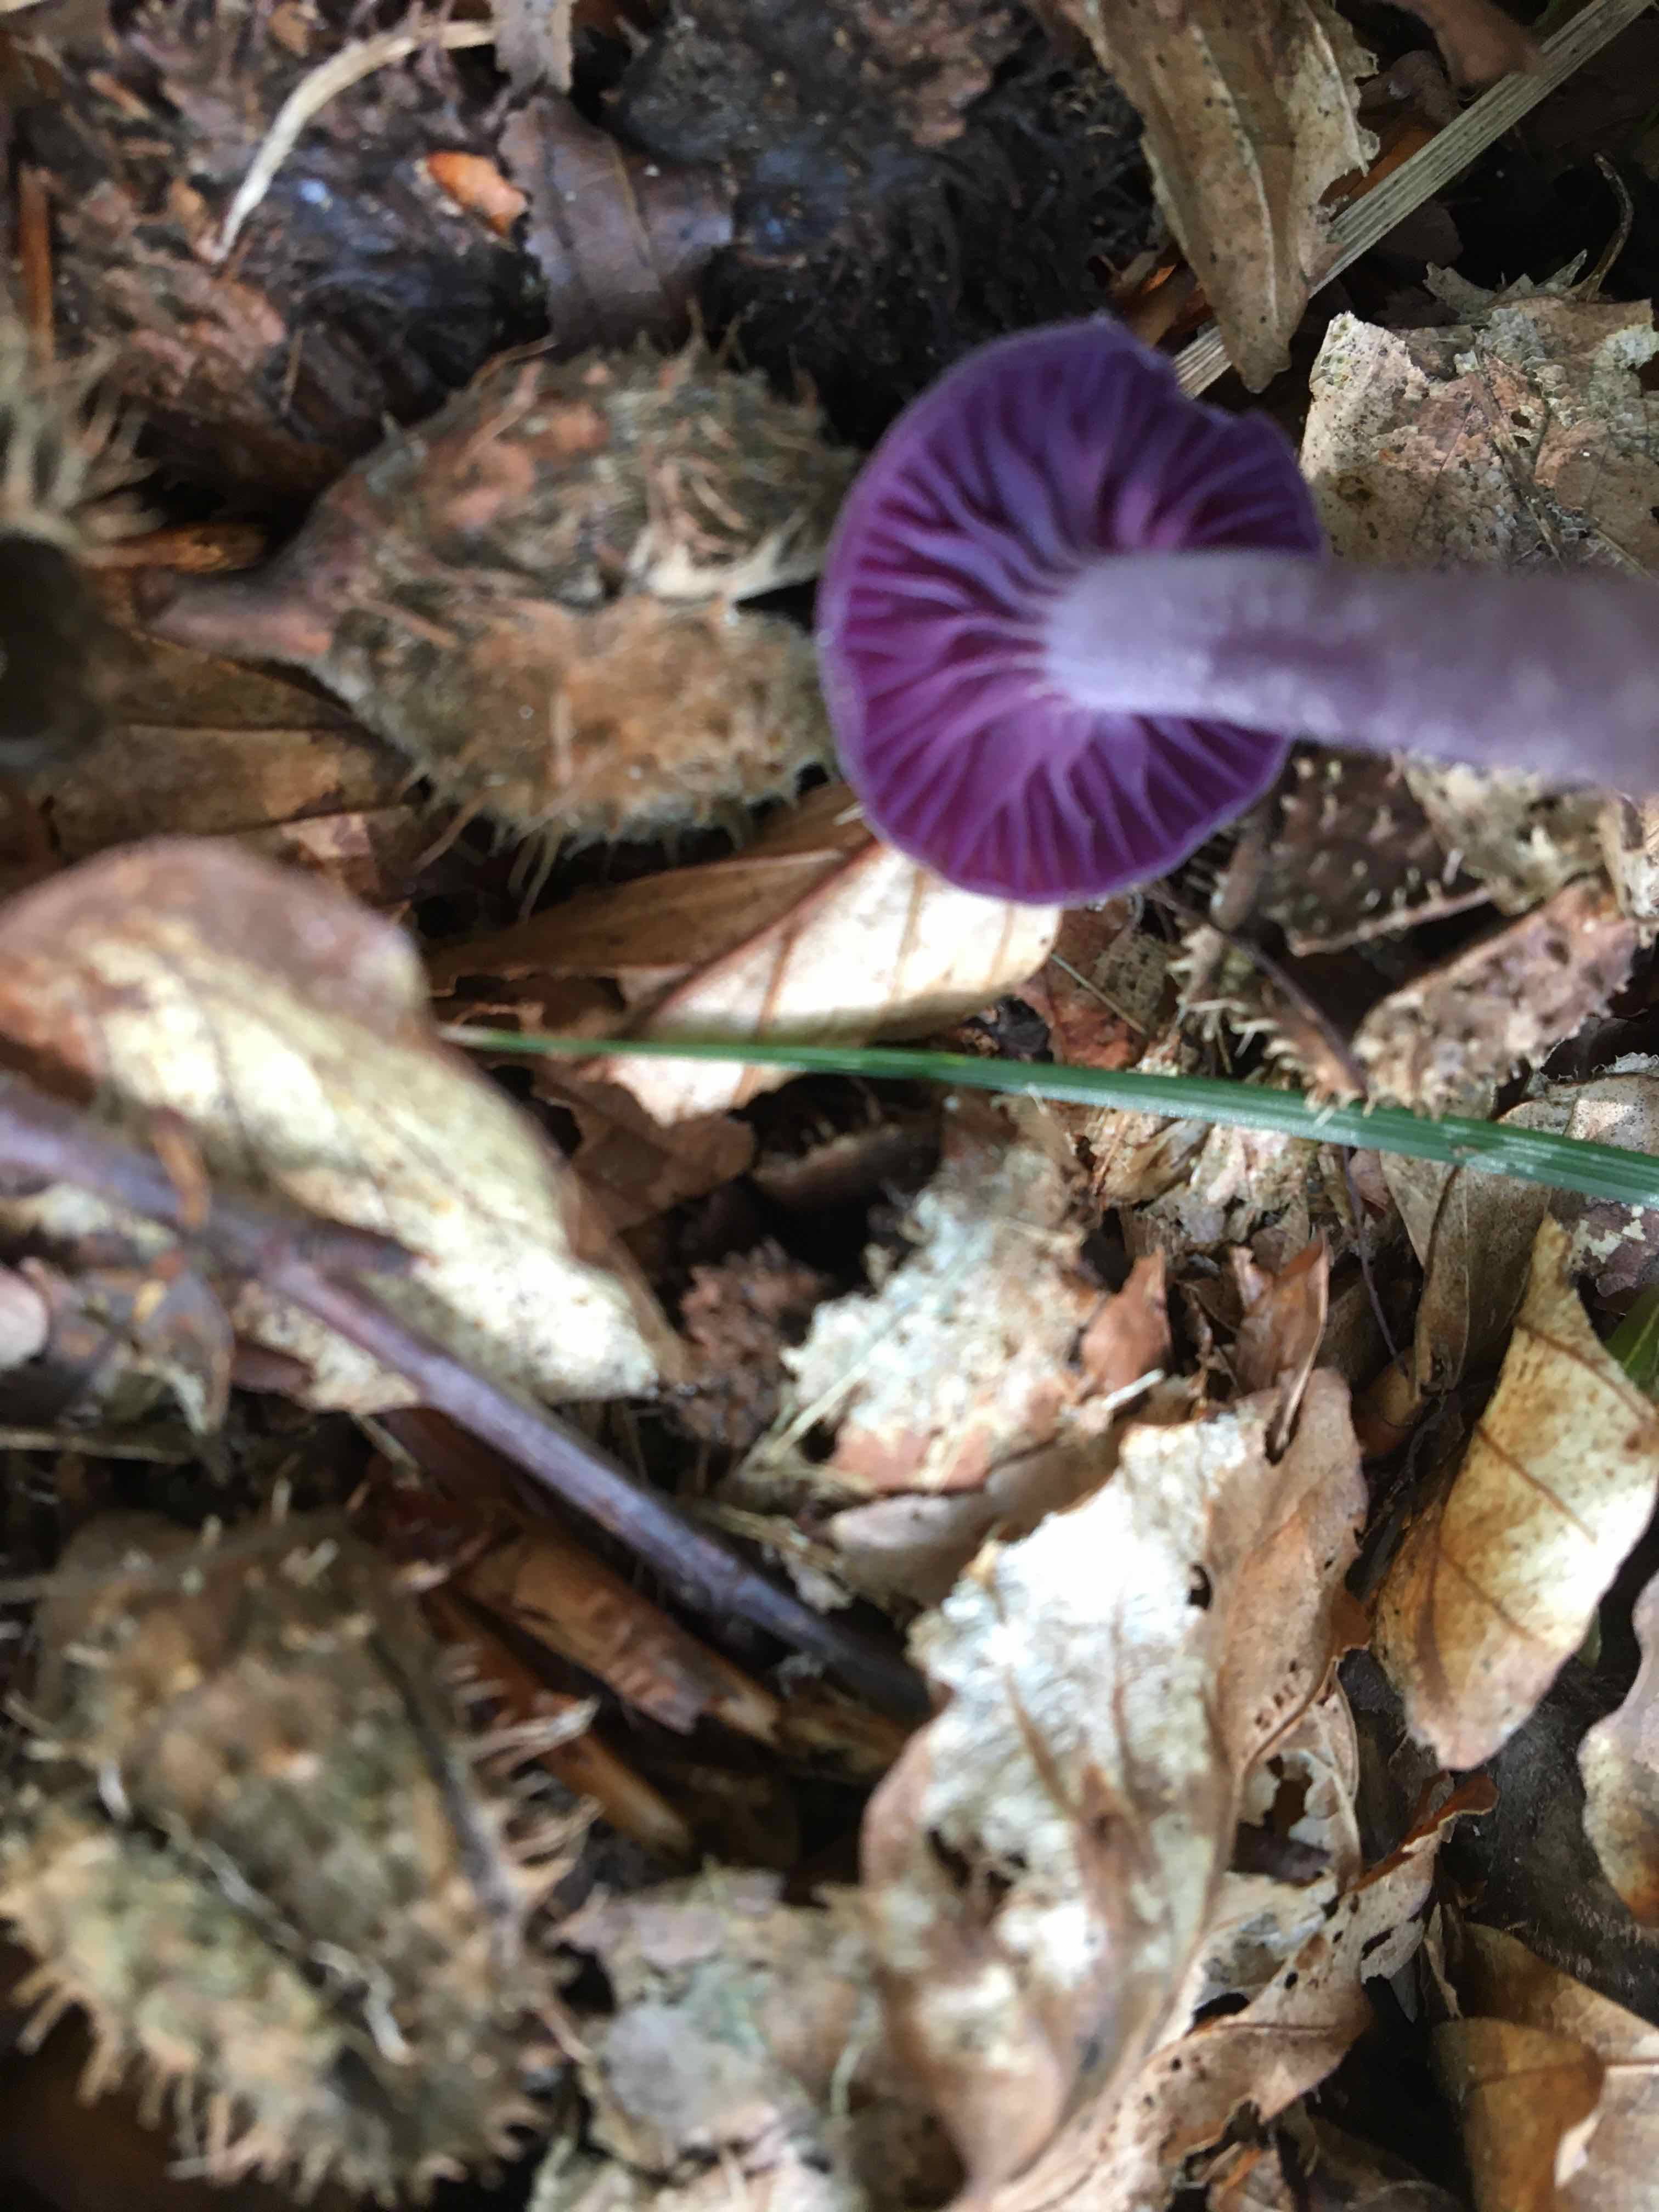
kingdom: Fungi
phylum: Basidiomycota
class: Agaricomycetes
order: Agaricales
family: Hydnangiaceae
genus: Laccaria
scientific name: Laccaria amethystina
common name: violet ametysthat
